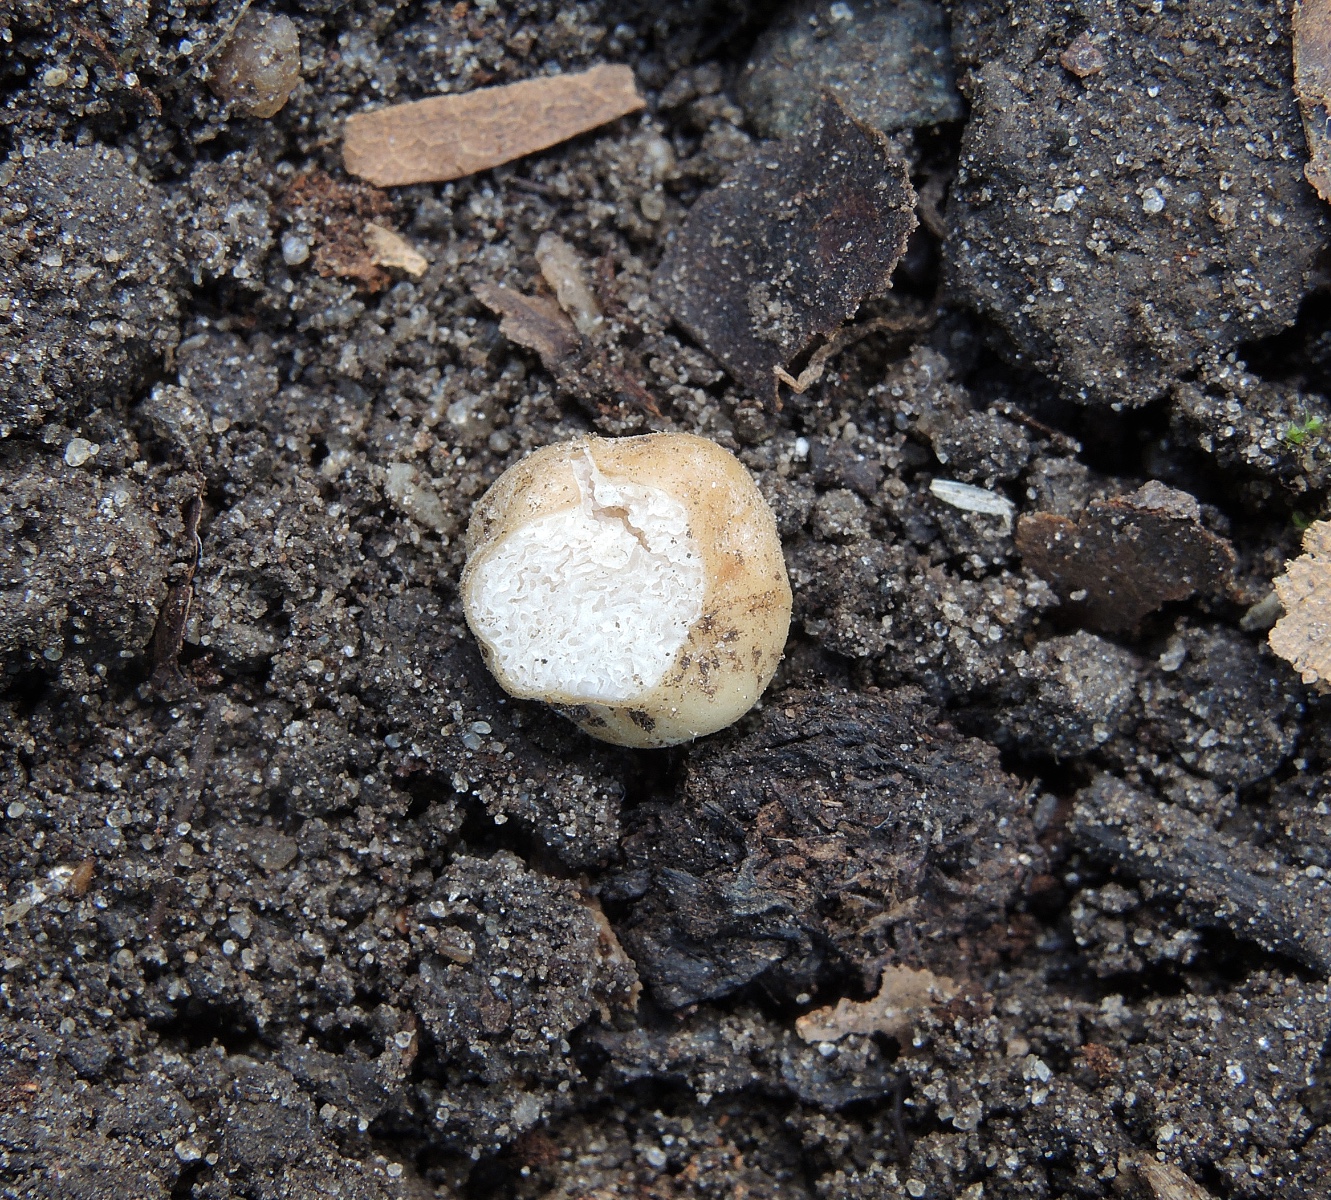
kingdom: Fungi
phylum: Basidiomycota
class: Agaricomycetes
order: Agaricales
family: Hymenogastraceae
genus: Hymenogaster
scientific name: Hymenogaster
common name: knoldtrøffel
